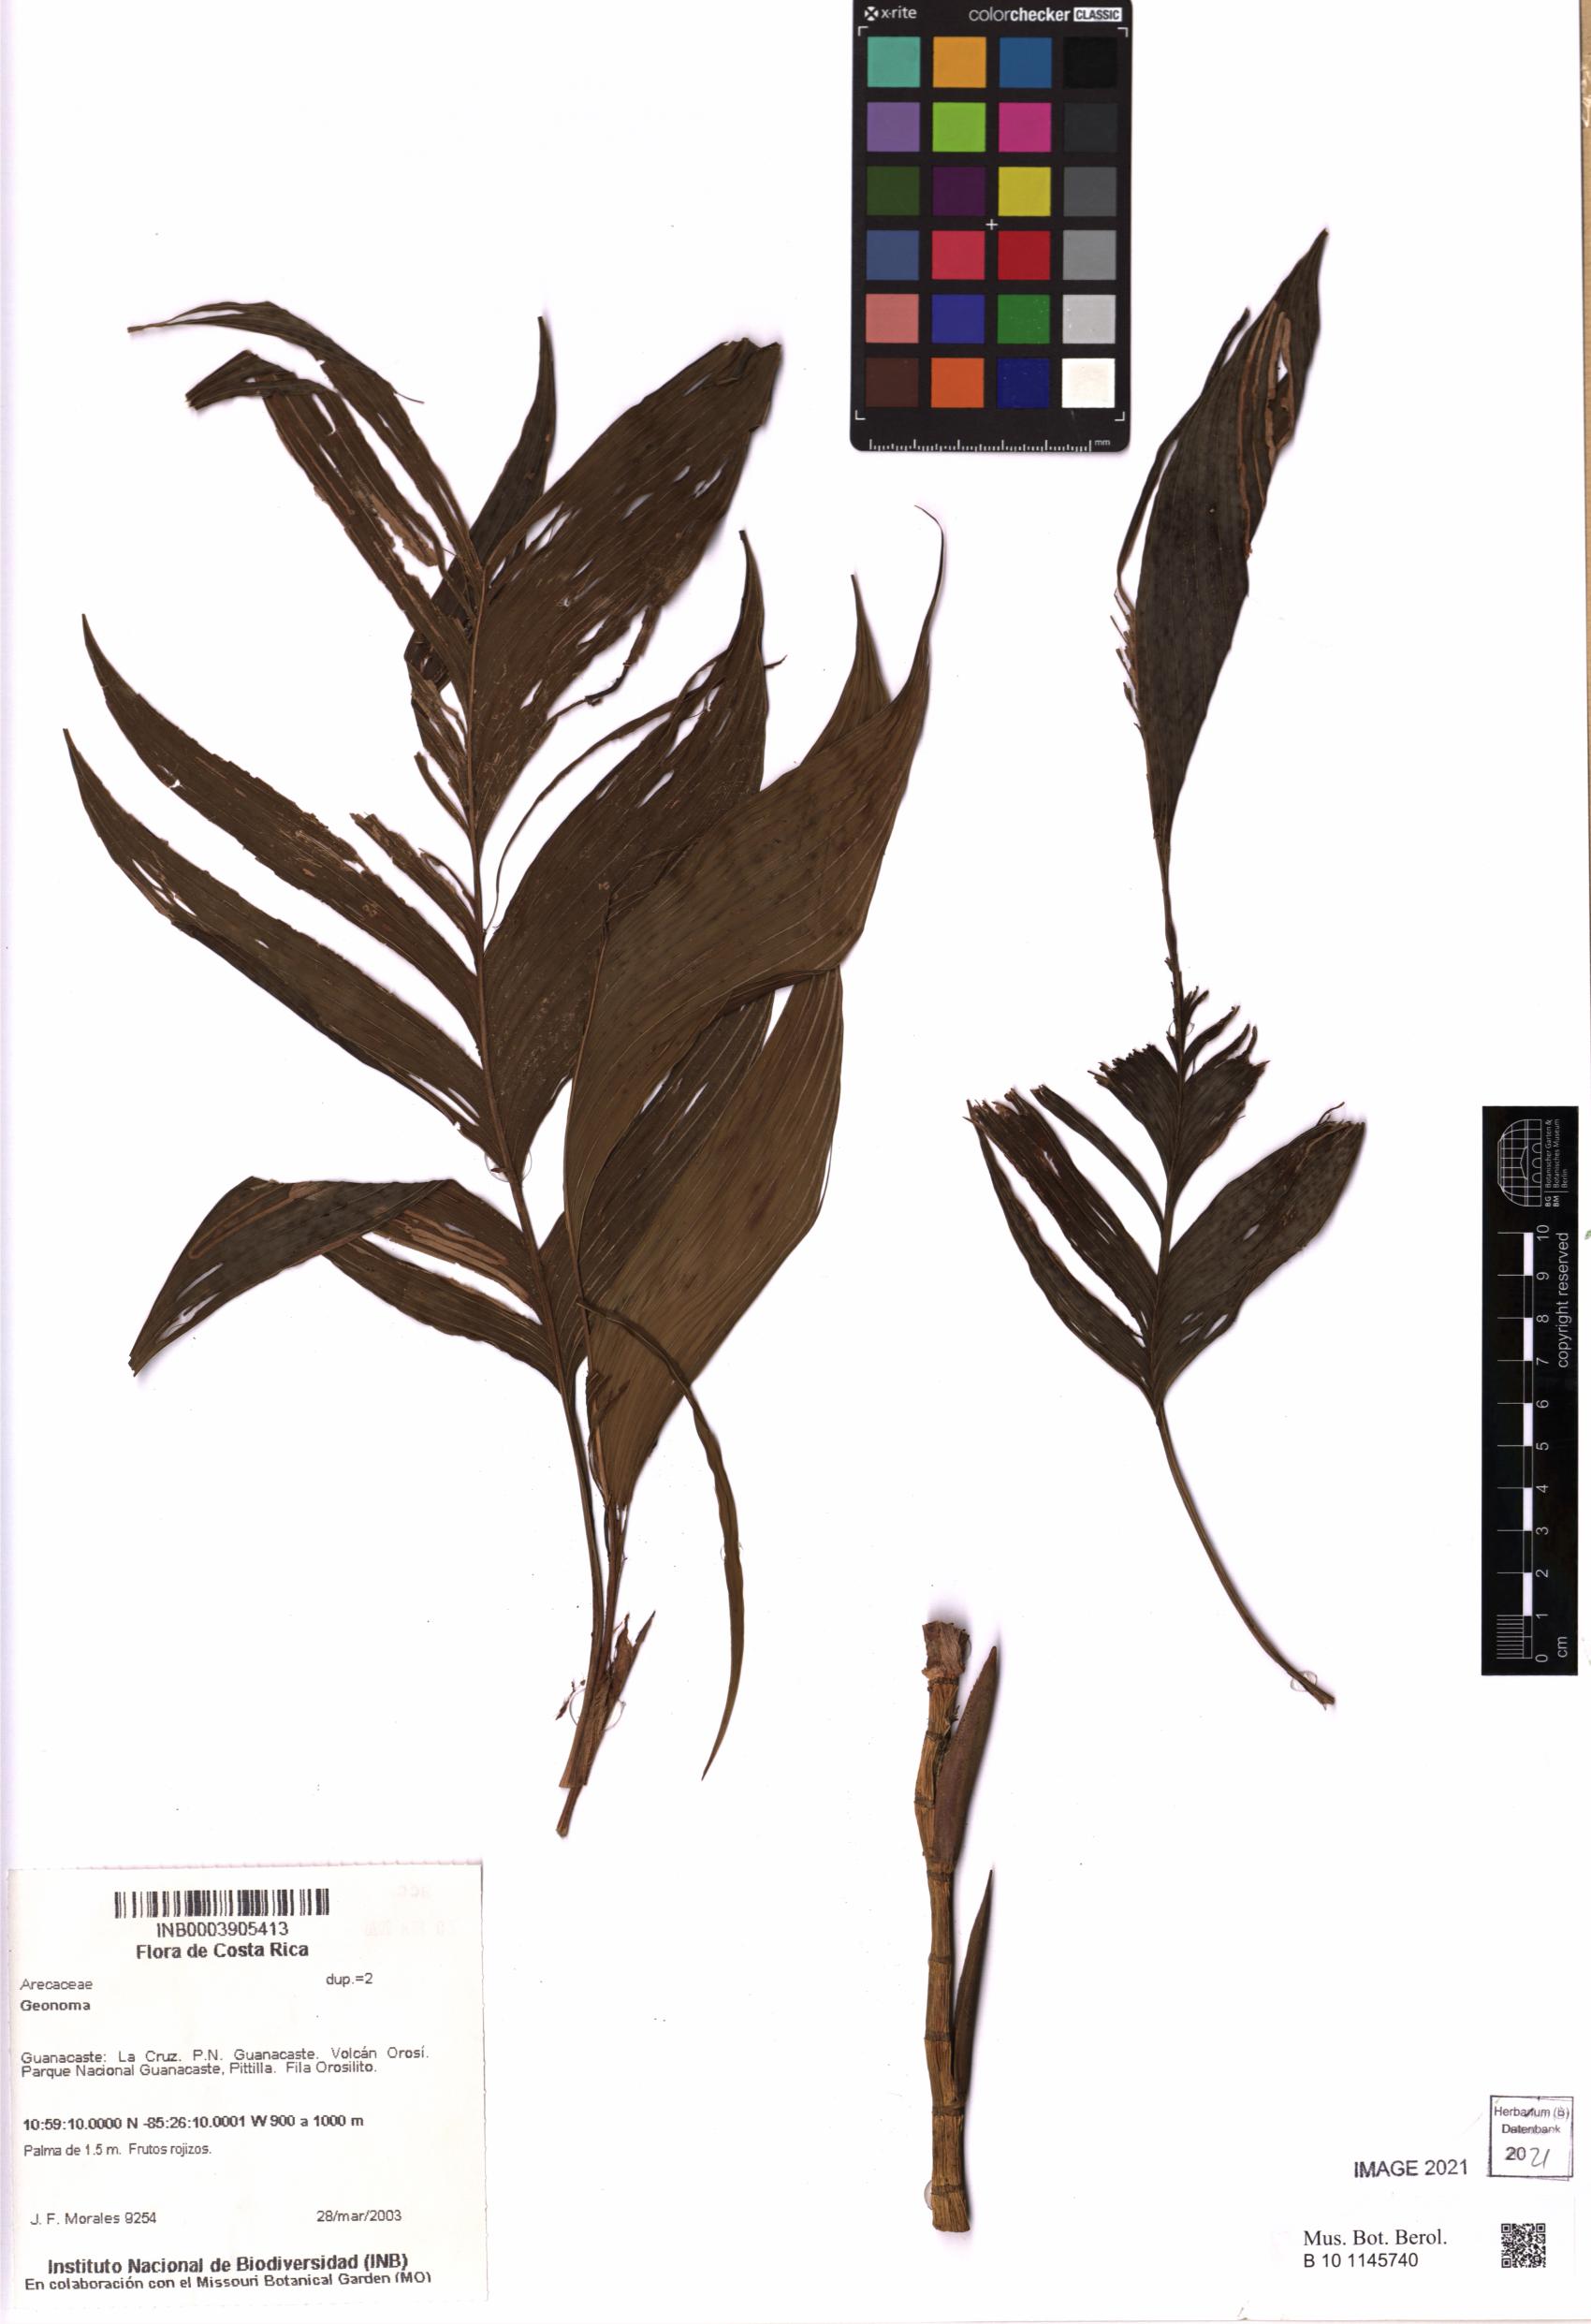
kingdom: Plantae
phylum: Tracheophyta
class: Liliopsida
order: Arecales
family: Arecaceae
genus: Geonoma
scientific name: Geonoma
